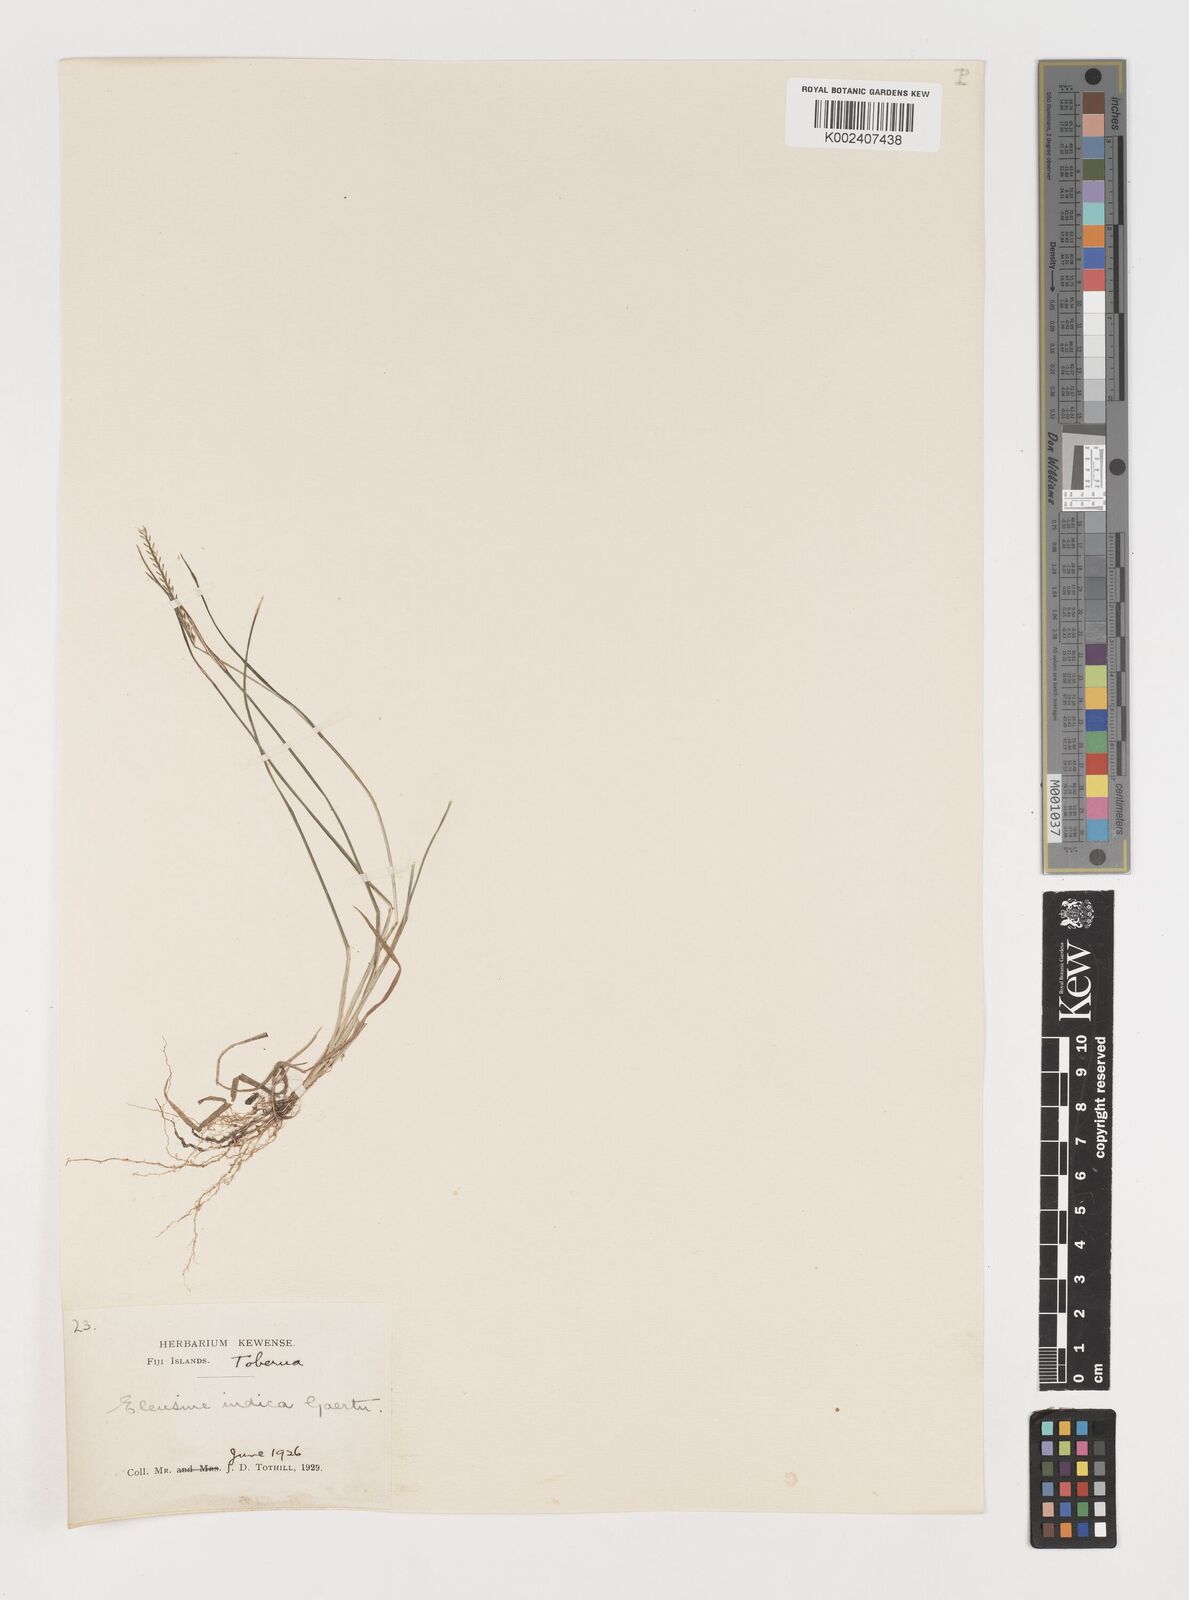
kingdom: Plantae
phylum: Tracheophyta
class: Liliopsida
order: Poales
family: Poaceae
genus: Eleusine
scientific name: Eleusine indica
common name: Yard-grass
